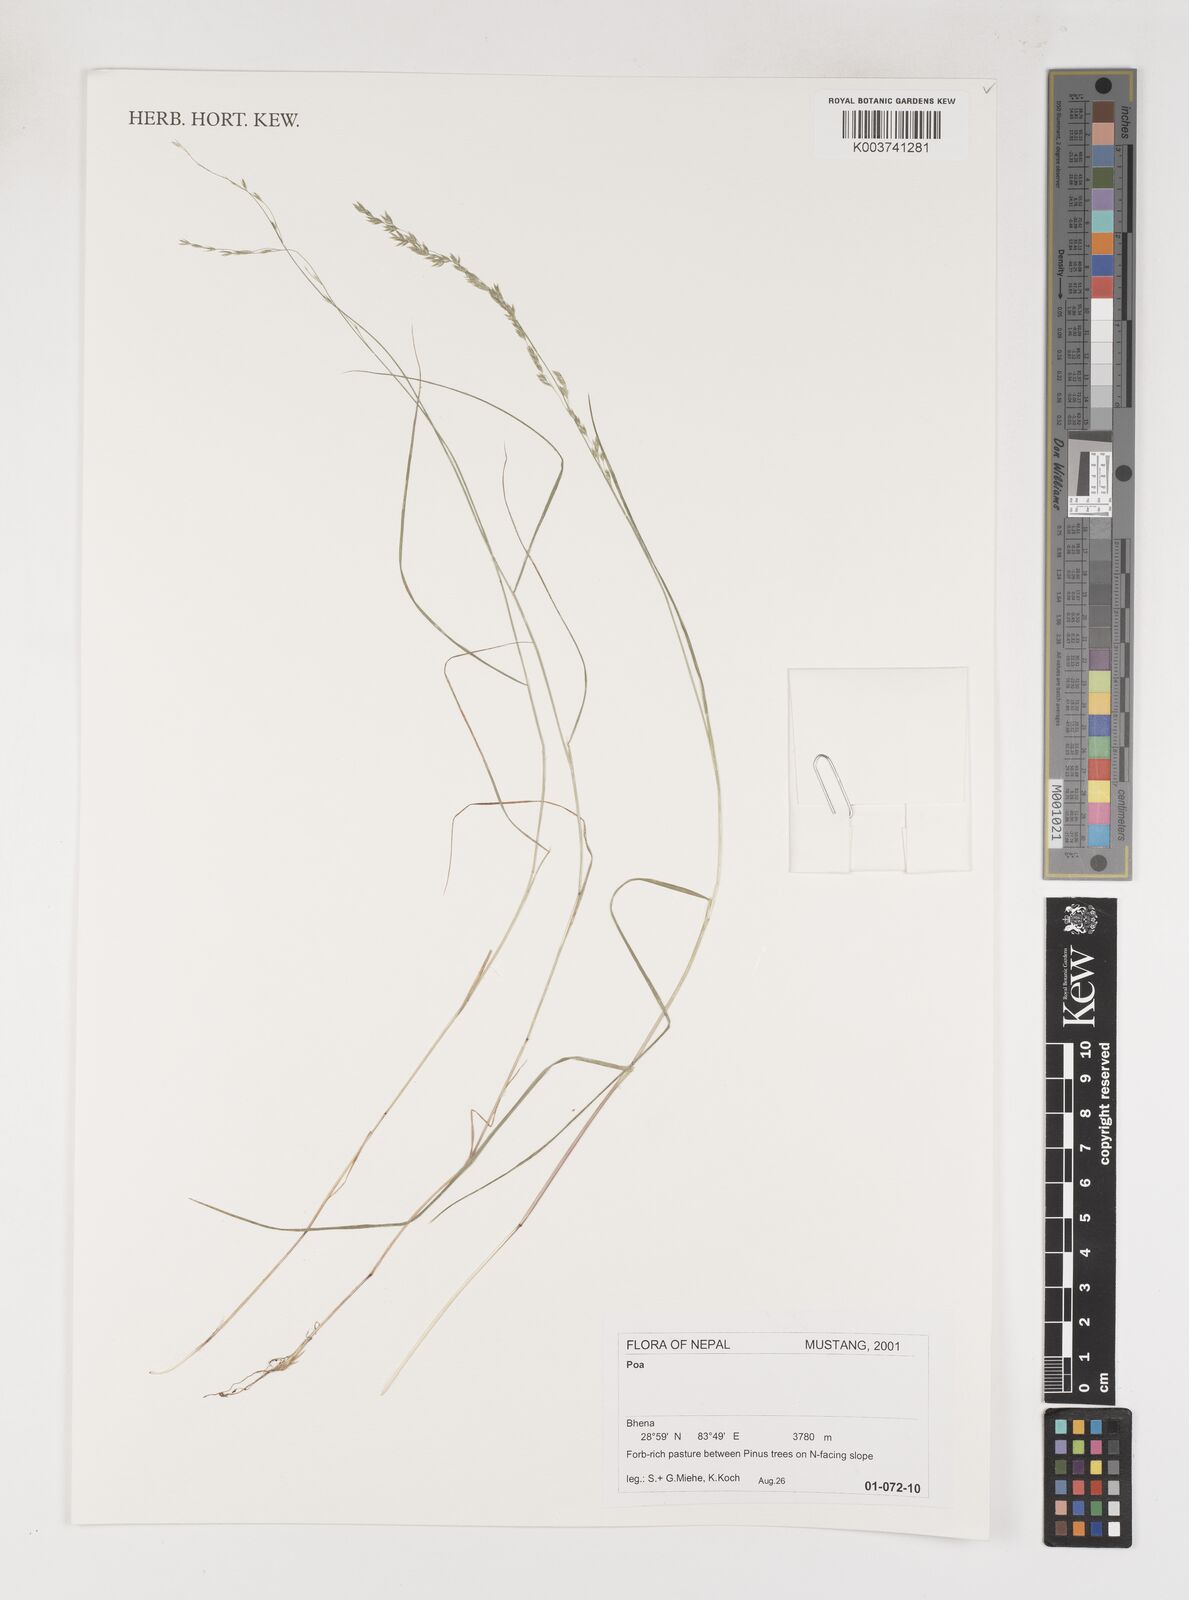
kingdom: Plantae
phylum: Tracheophyta
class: Liliopsida
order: Poales
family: Poaceae
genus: Poa
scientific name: Poa
